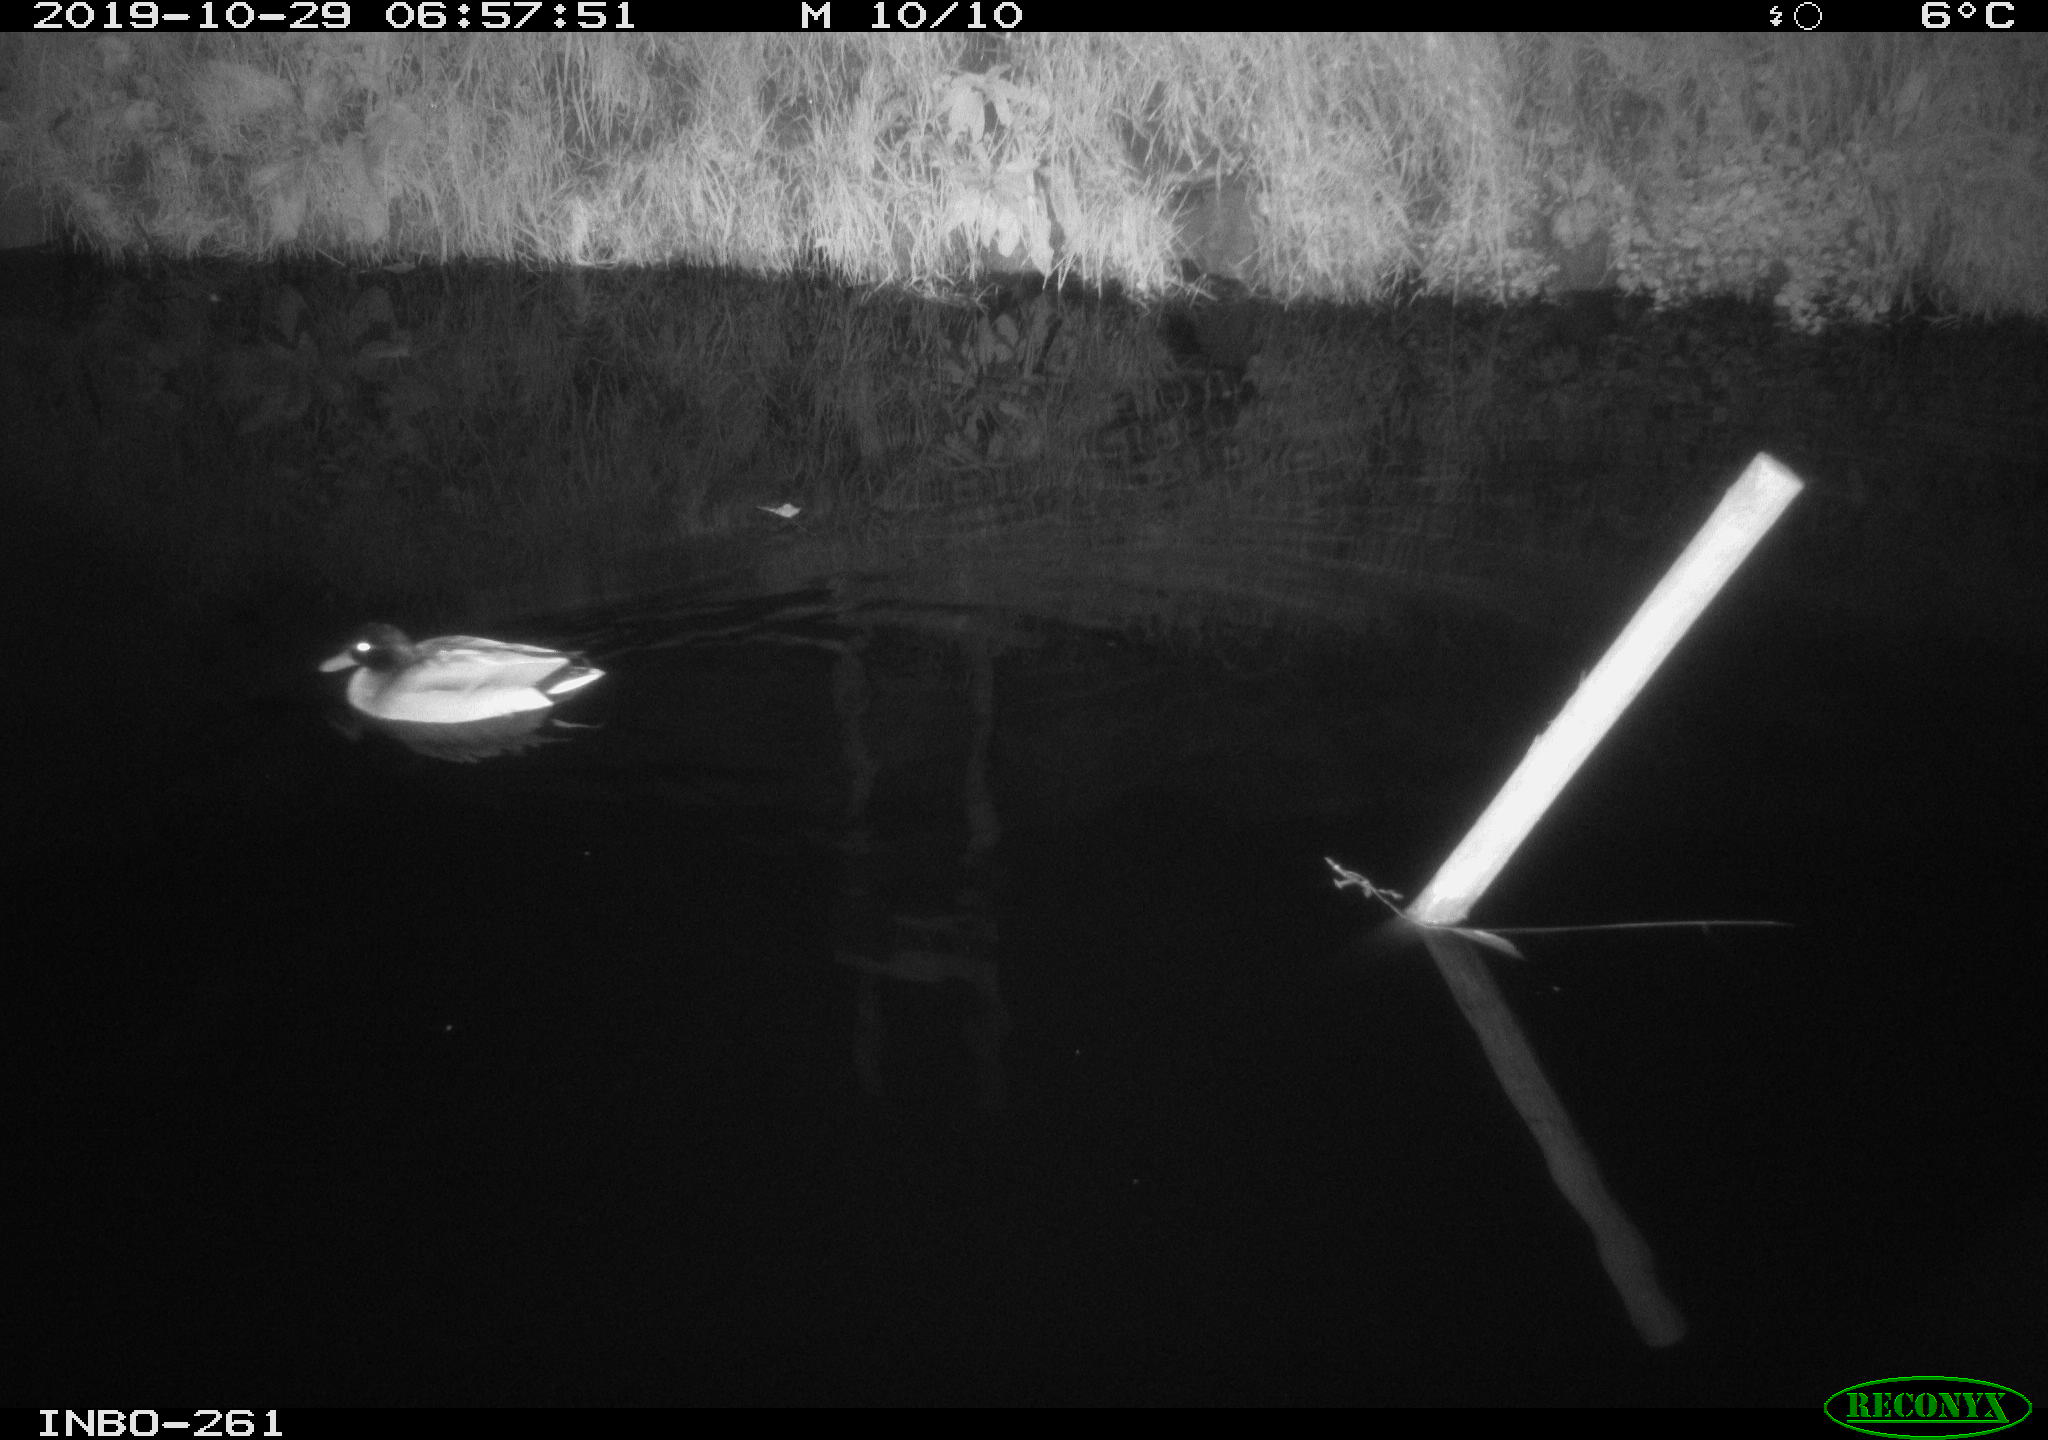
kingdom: Animalia
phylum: Chordata
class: Aves
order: Anseriformes
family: Anatidae
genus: Anas
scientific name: Anas platyrhynchos
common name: Mallard
